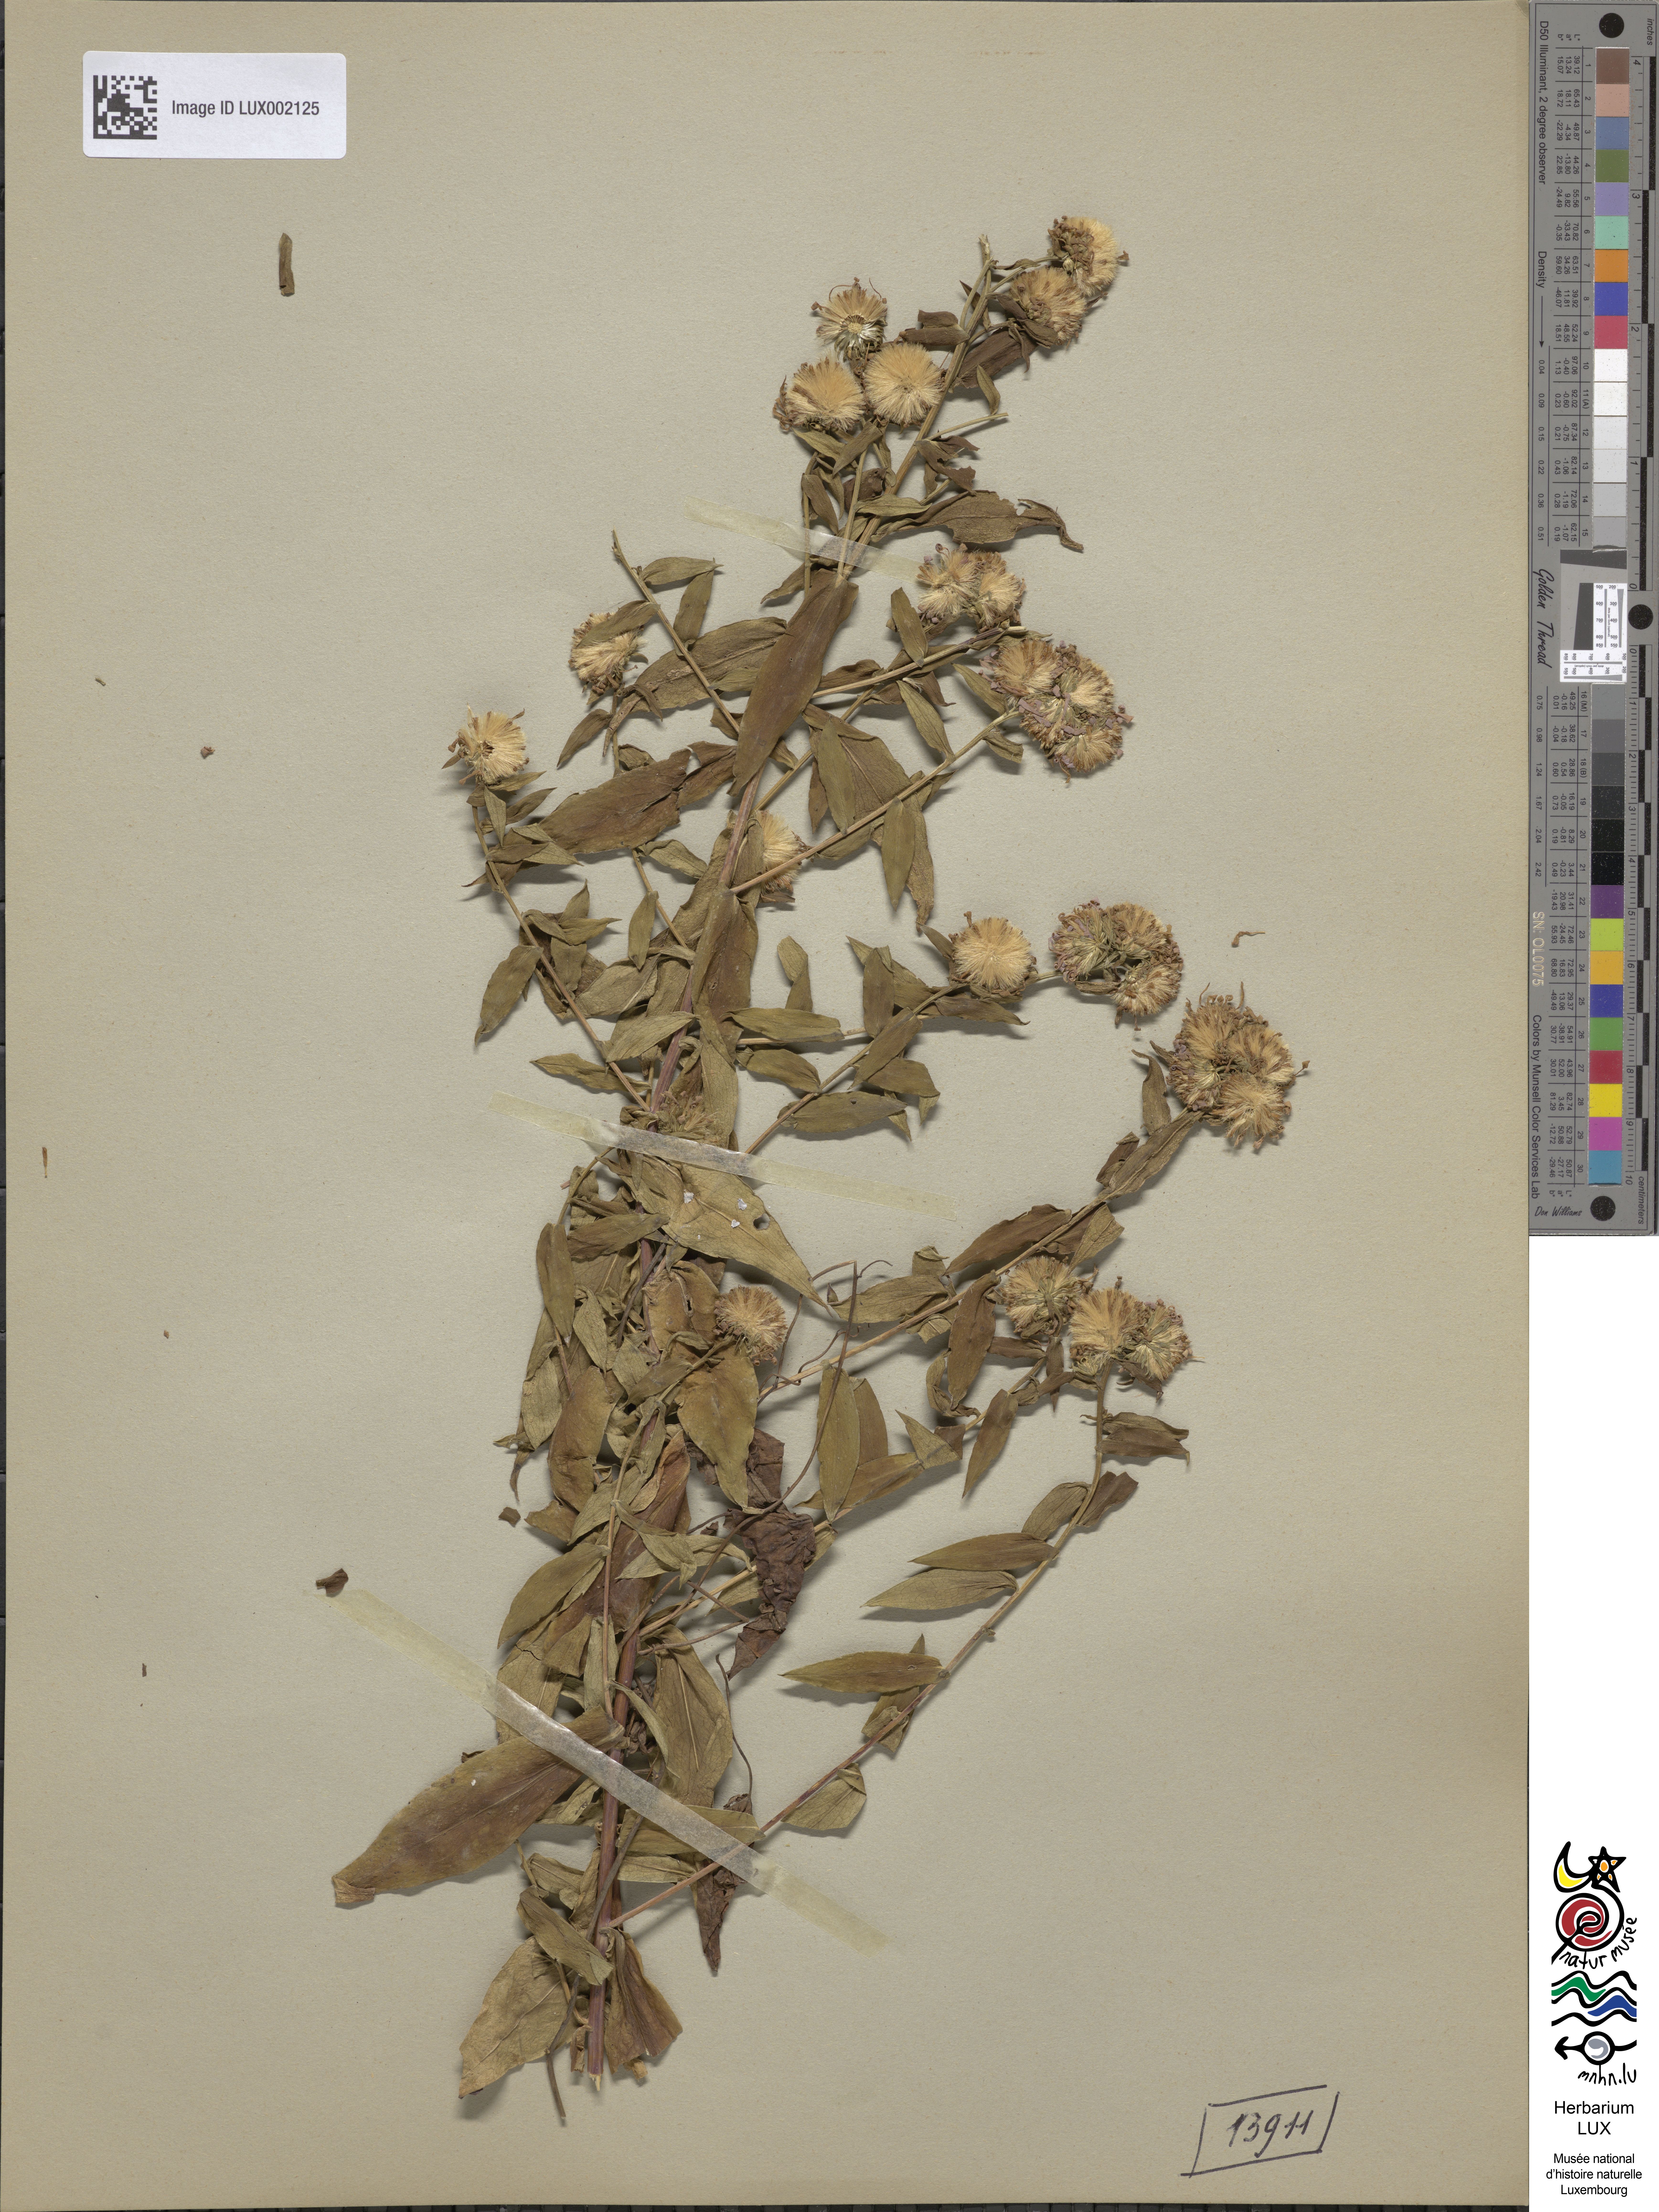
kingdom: Plantae
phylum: Tracheophyta
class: Magnoliopsida
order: Asterales
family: Asteraceae
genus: Symphyotrichum
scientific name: Symphyotrichum tardiflorum
